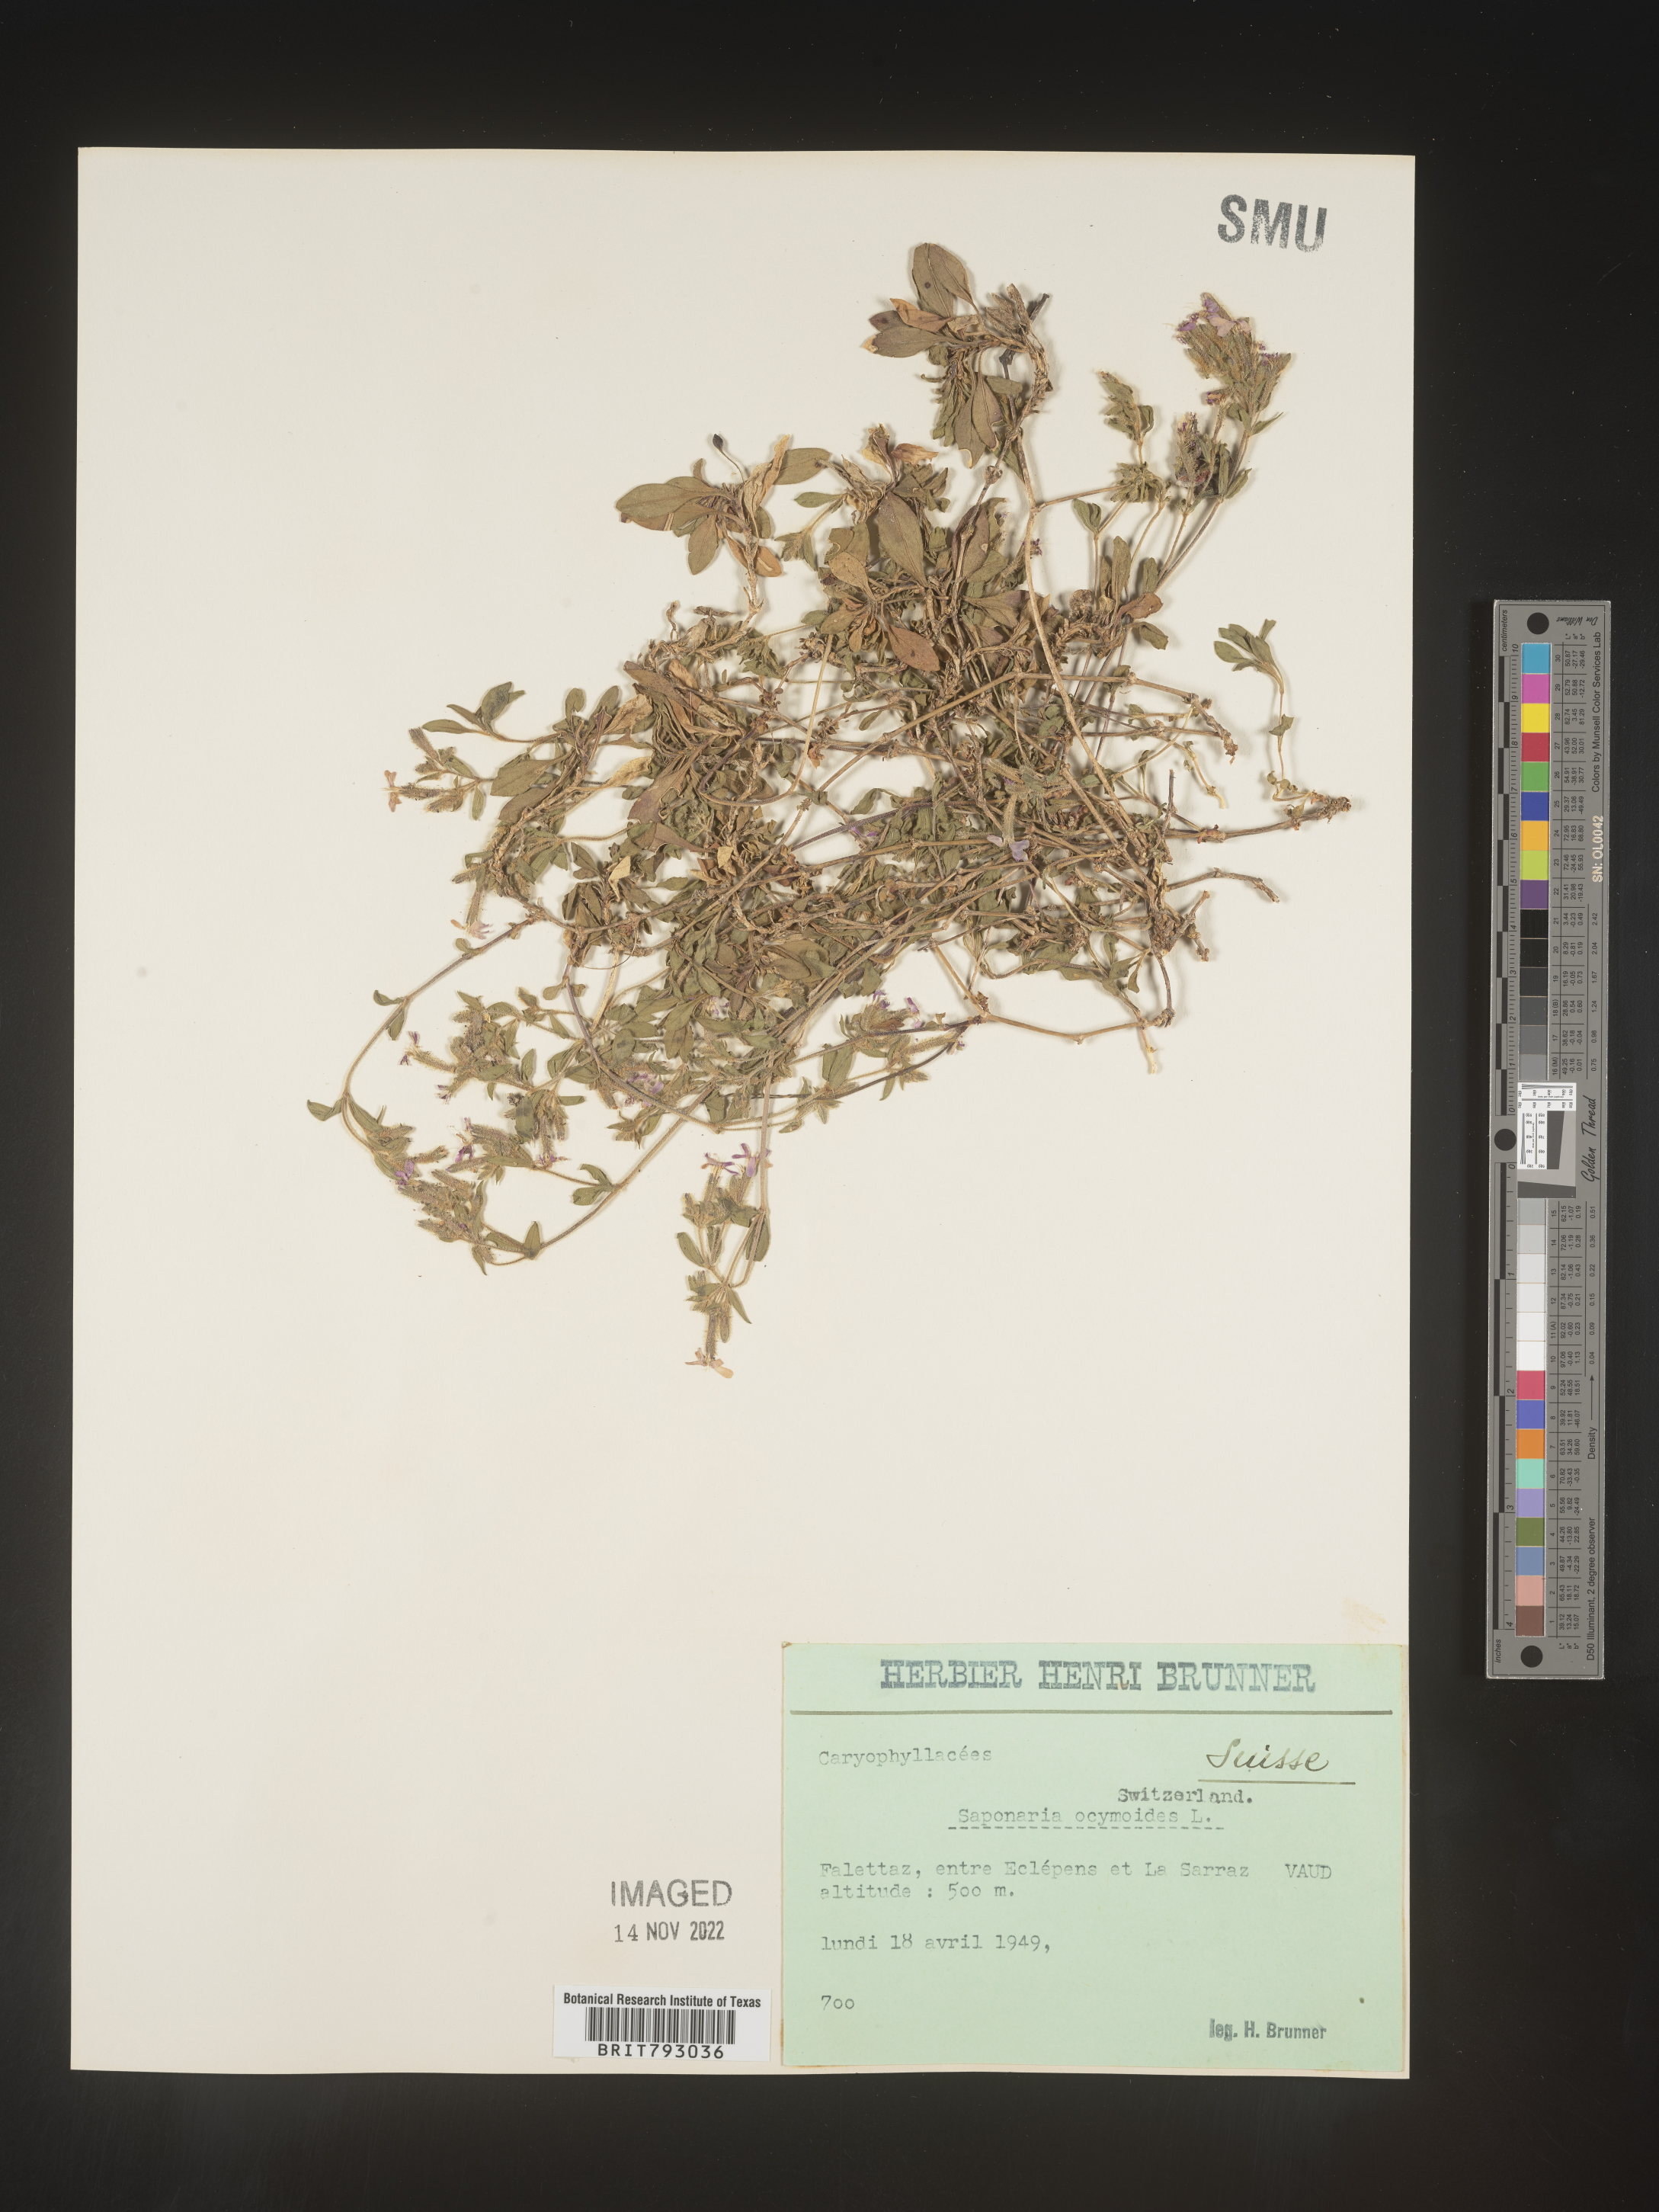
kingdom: Plantae
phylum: Tracheophyta
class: Magnoliopsida
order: Caryophyllales
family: Caryophyllaceae
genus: Saponaria
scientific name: Saponaria
